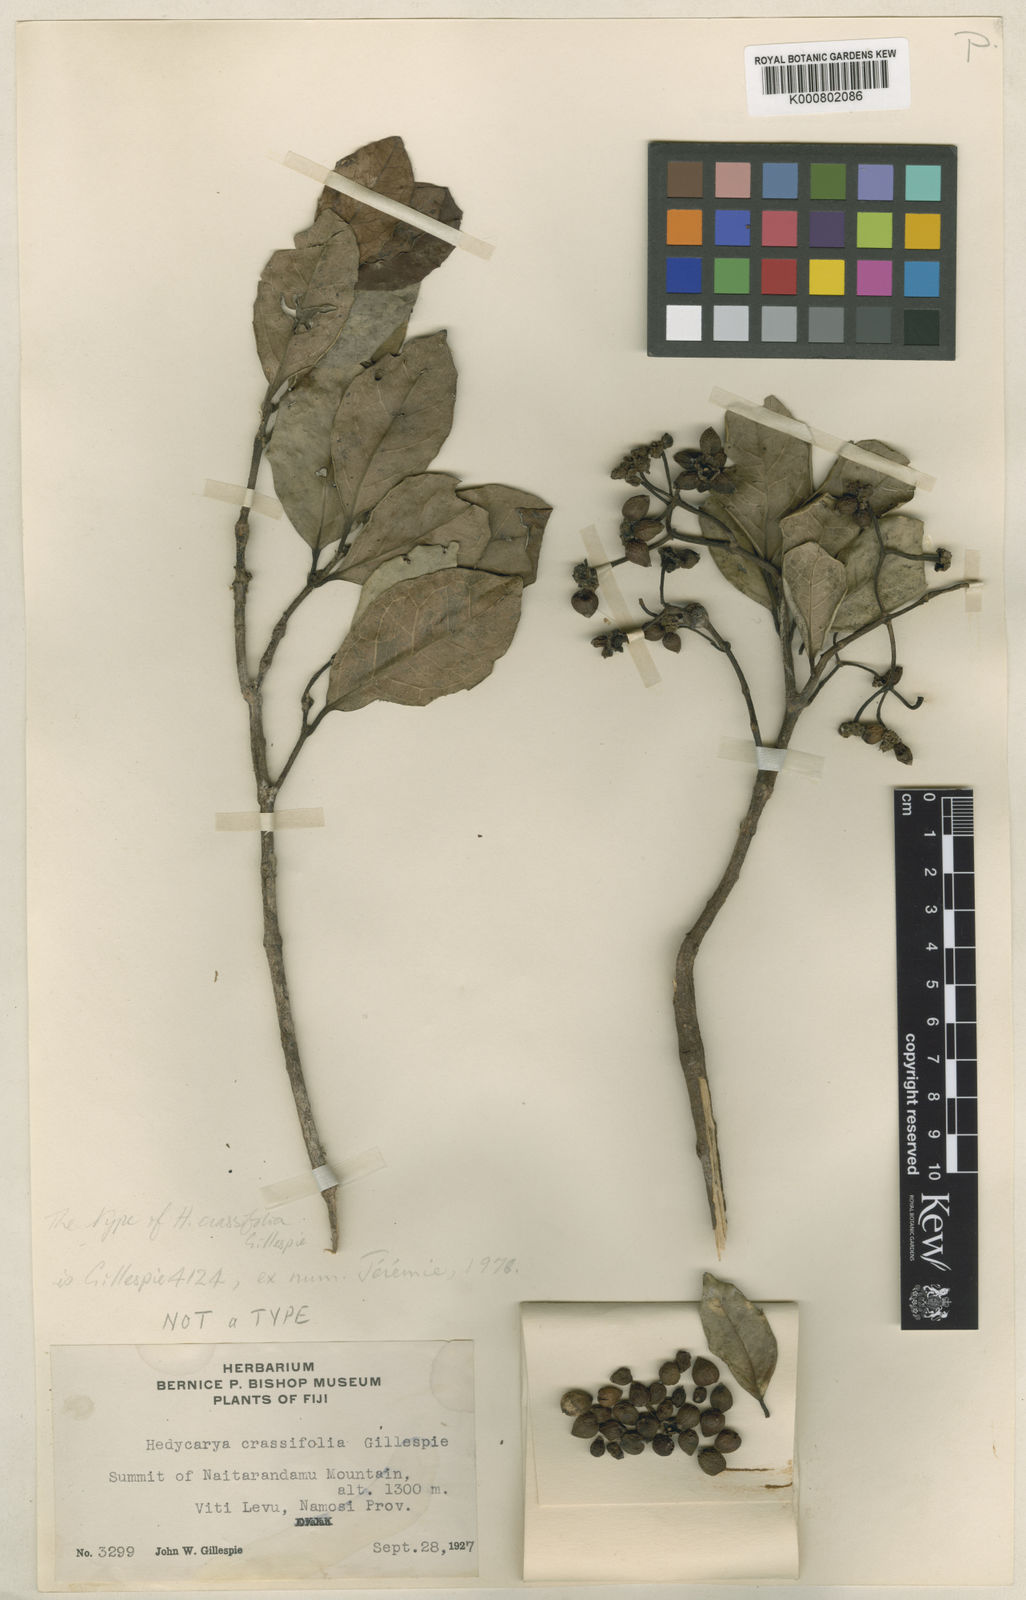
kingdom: Plantae
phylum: Tracheophyta
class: Magnoliopsida
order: Laurales
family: Monimiaceae
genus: Hedycarya
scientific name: Hedycarya dorstenioides
